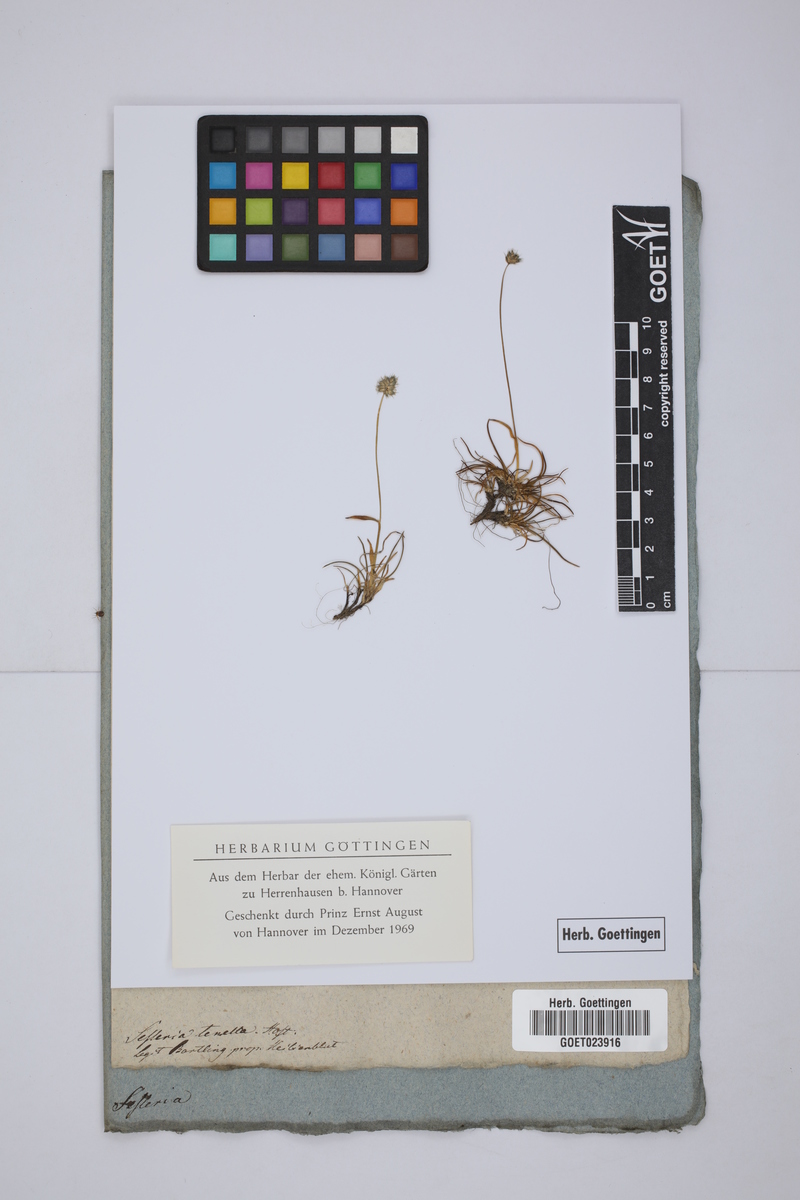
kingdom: Plantae
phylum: Tracheophyta
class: Liliopsida
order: Poales
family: Poaceae
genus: Psilathera
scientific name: Psilathera ovata
